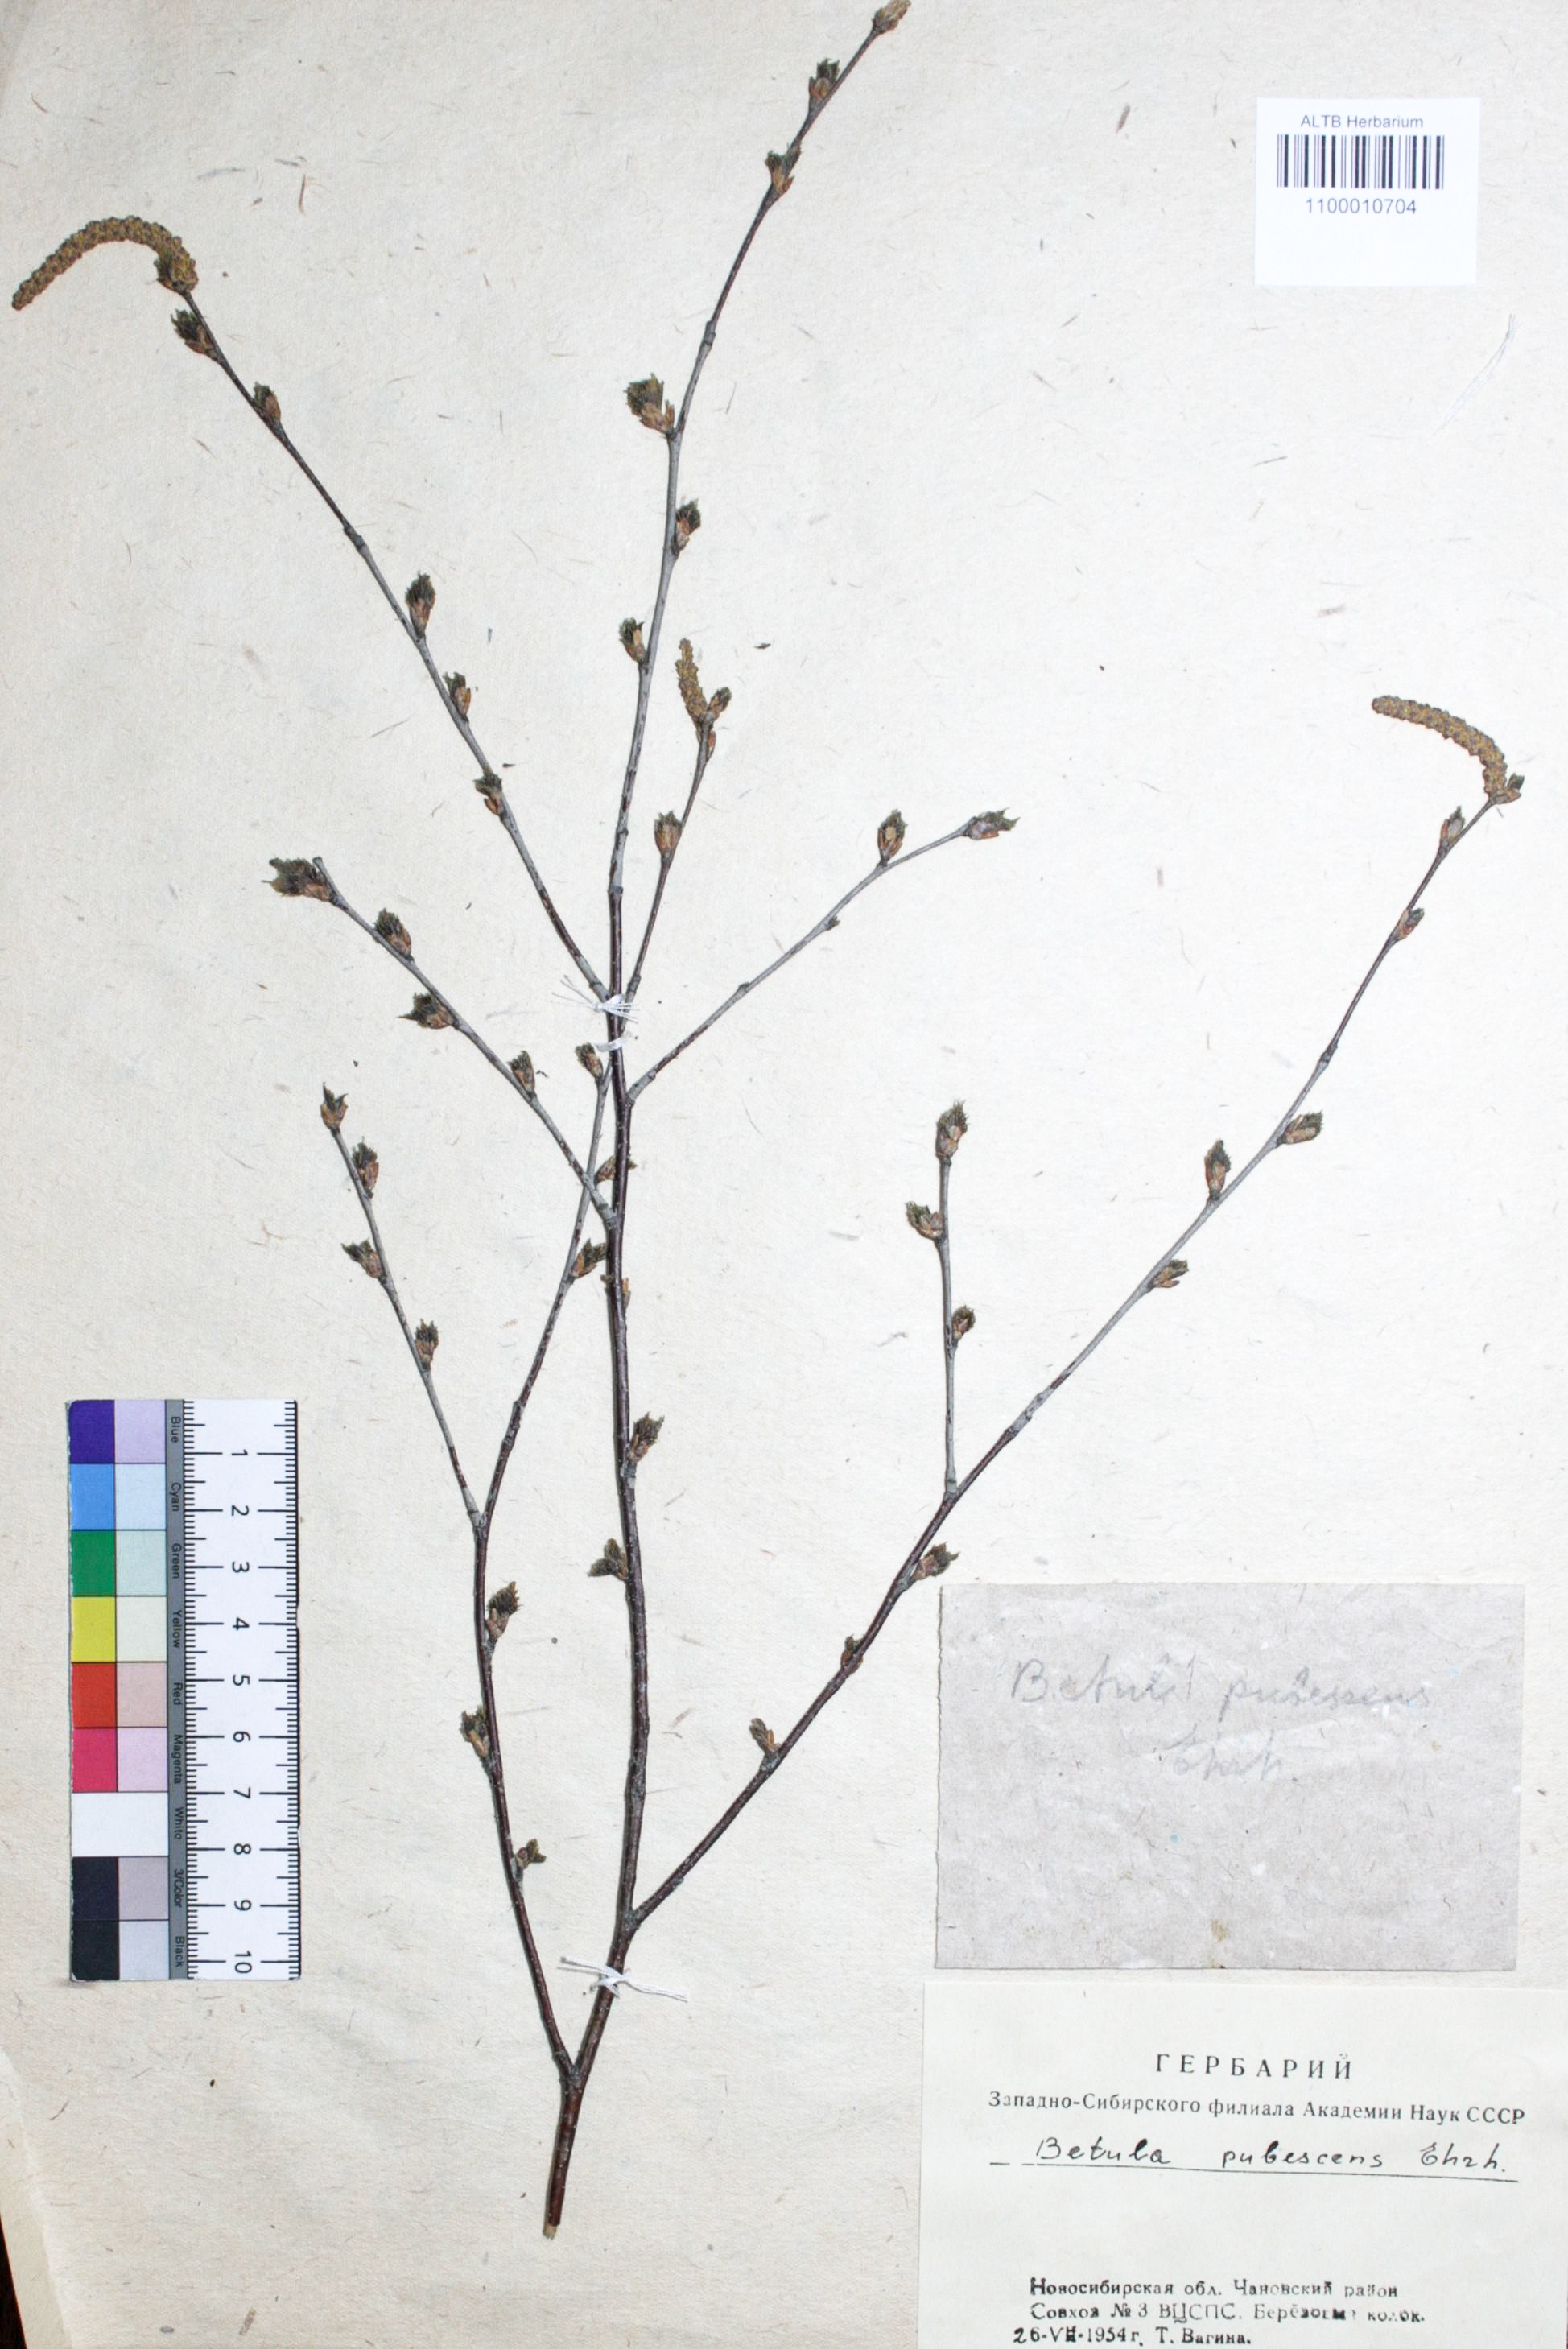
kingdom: Plantae
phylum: Tracheophyta
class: Magnoliopsida
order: Fagales
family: Betulaceae
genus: Betula
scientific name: Betula pubescens
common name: Downy birch
